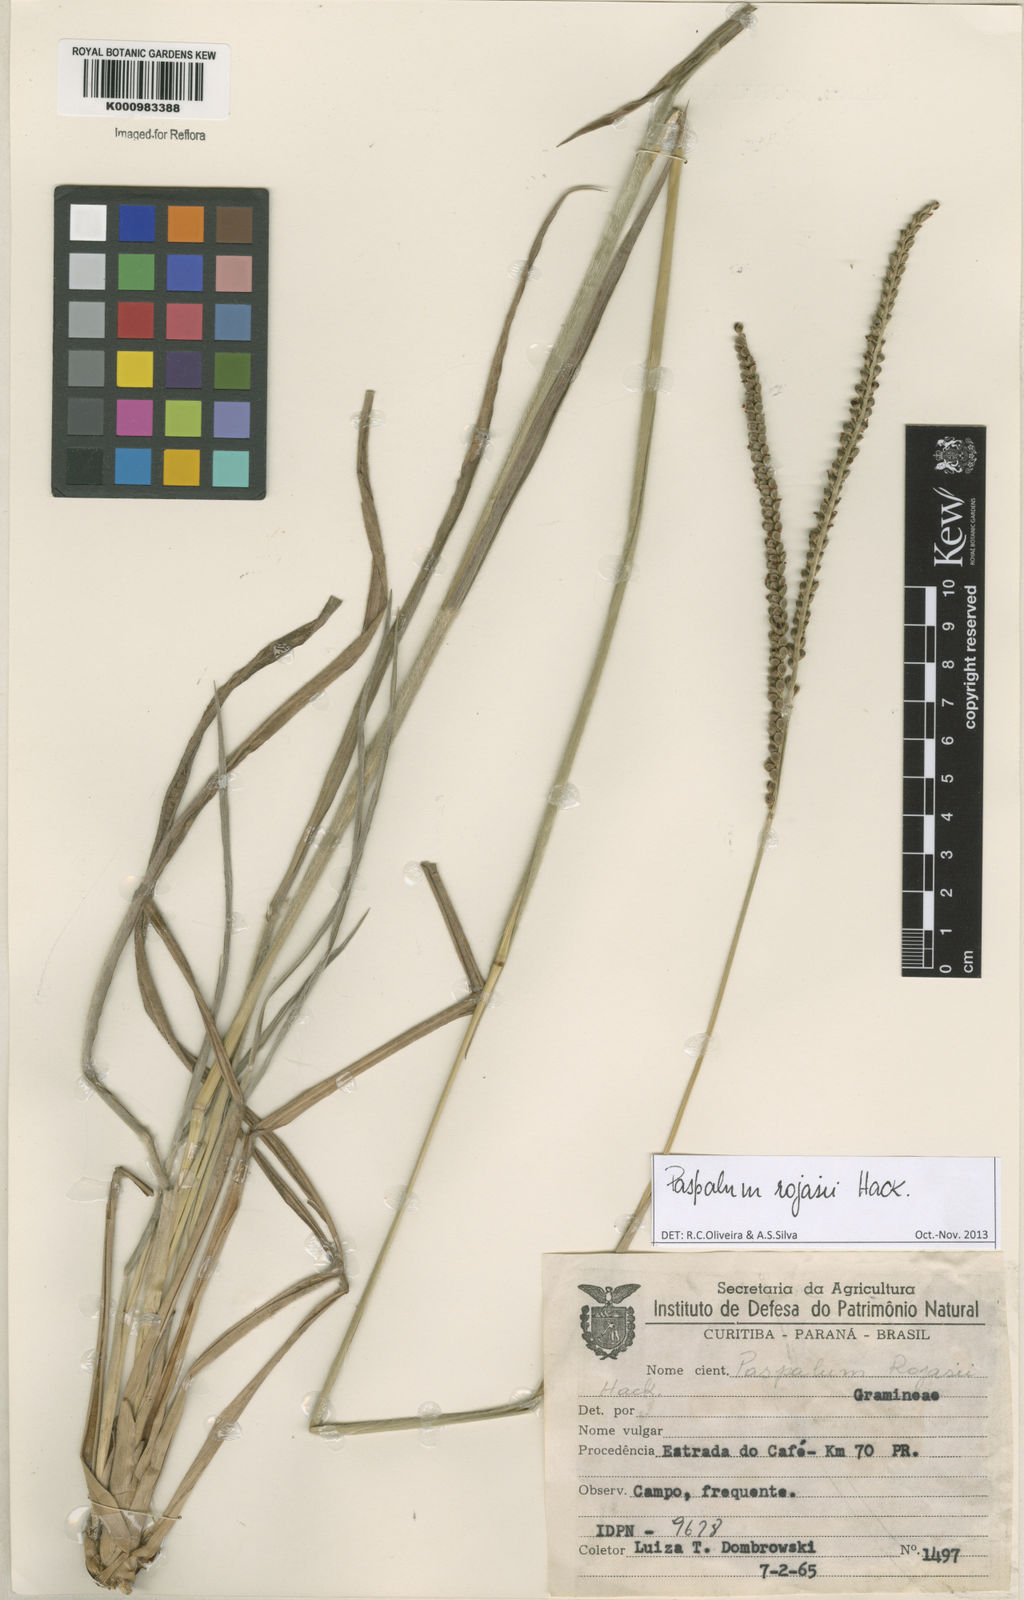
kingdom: Plantae
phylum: Tracheophyta
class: Liliopsida
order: Poales
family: Poaceae
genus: Paspalum
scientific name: Paspalum guenoarum
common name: Wintergreen paspalum
